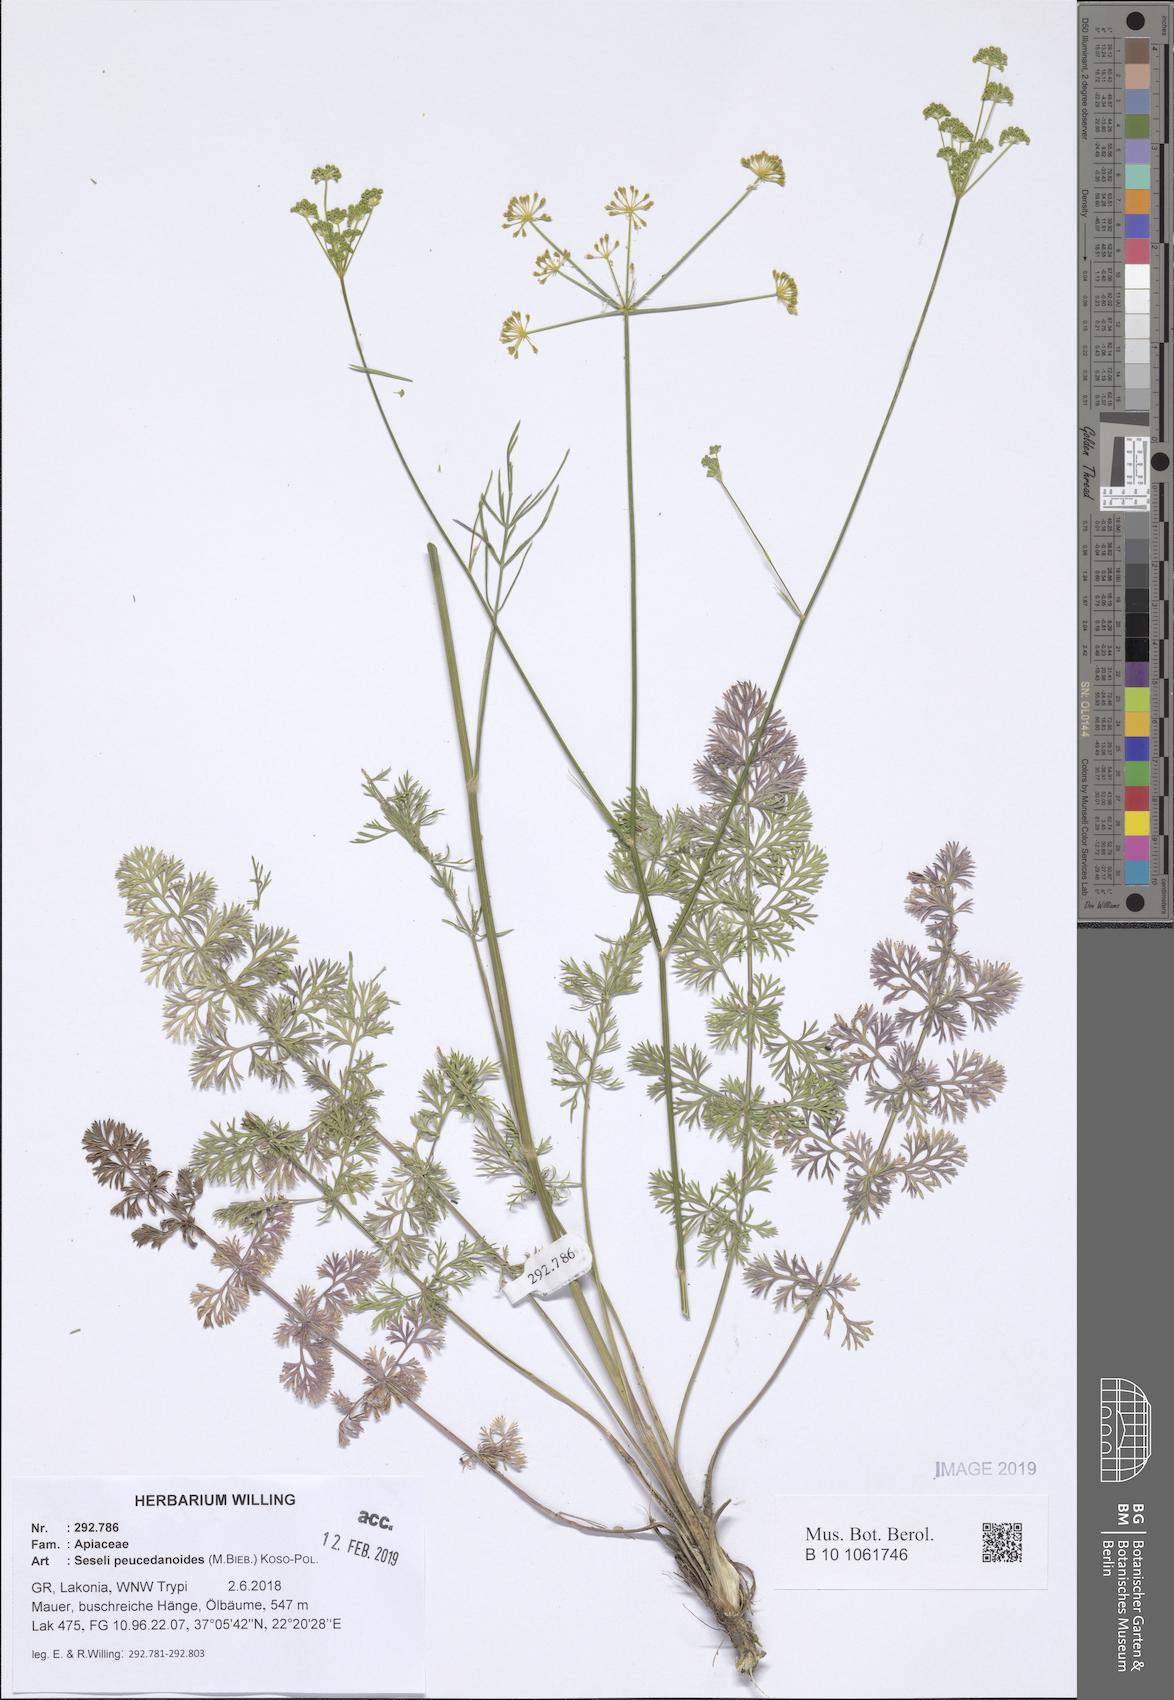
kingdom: Plantae
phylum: Tracheophyta
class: Magnoliopsida
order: Apiales
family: Apiaceae
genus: Gasparinia
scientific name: Gasparinia peucedanoides
